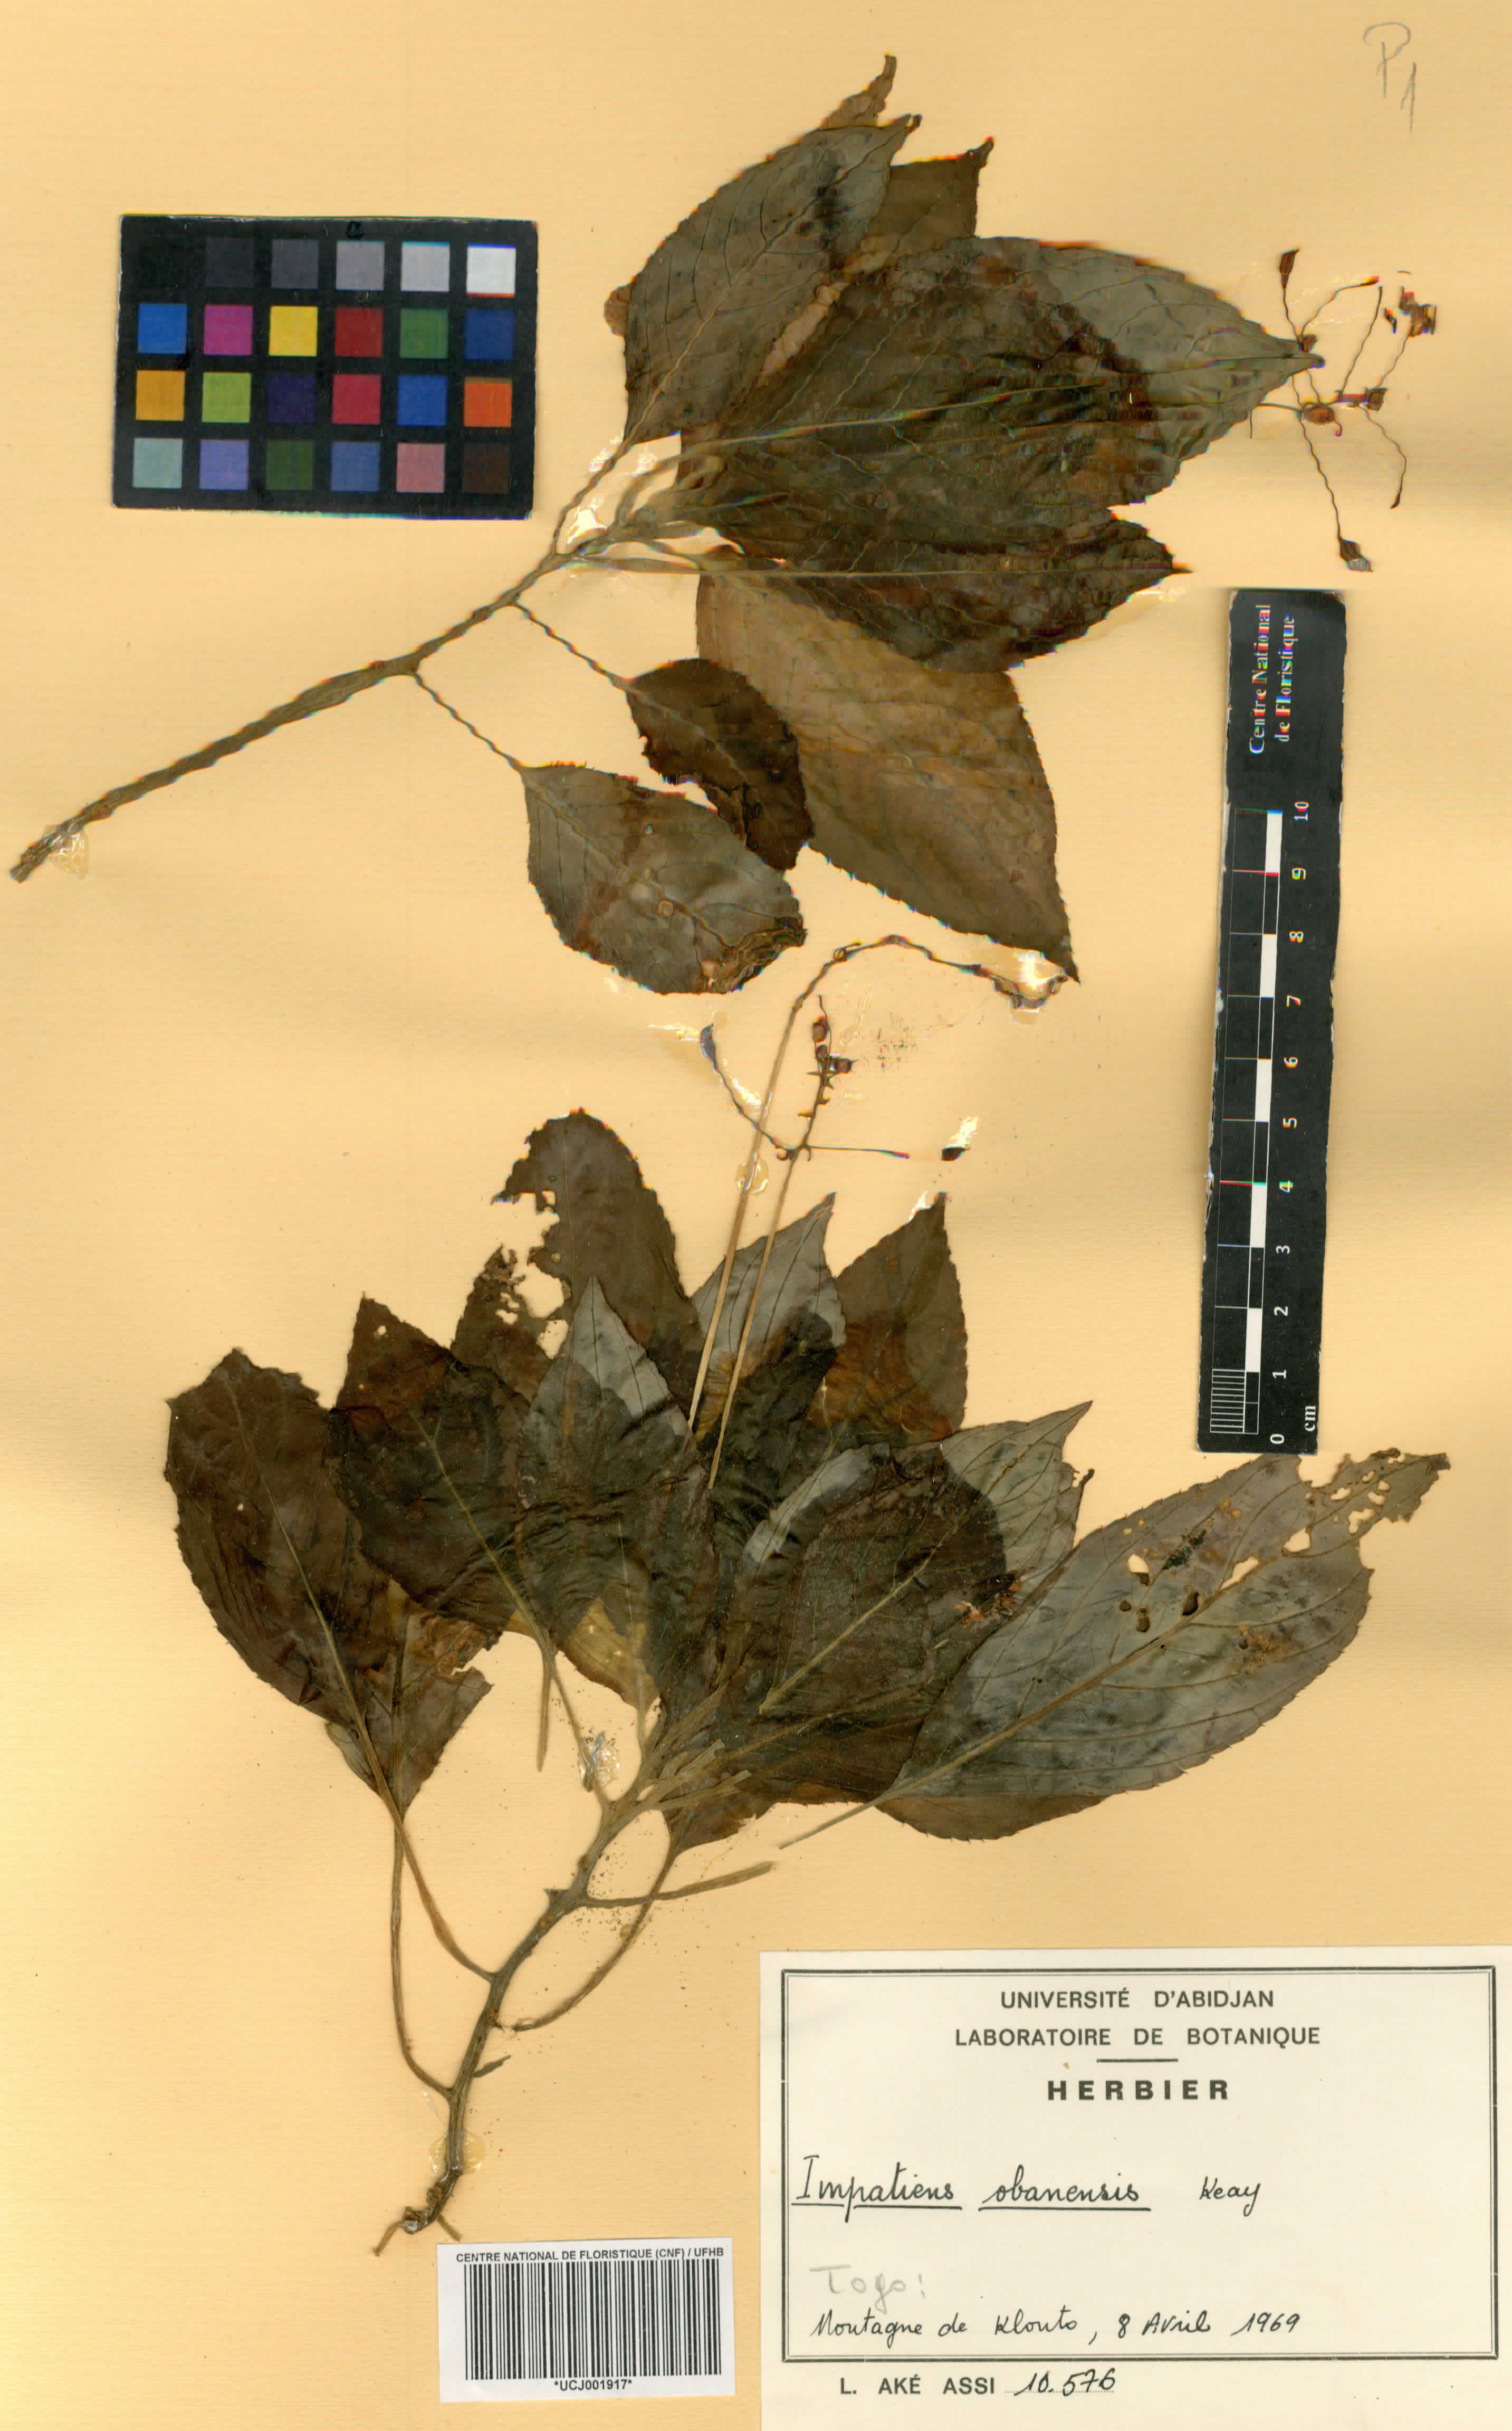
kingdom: Plantae
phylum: Tracheophyta
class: Magnoliopsida
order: Ericales
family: Balsaminaceae
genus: Impatiens
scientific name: Impatiens kamerunensis
